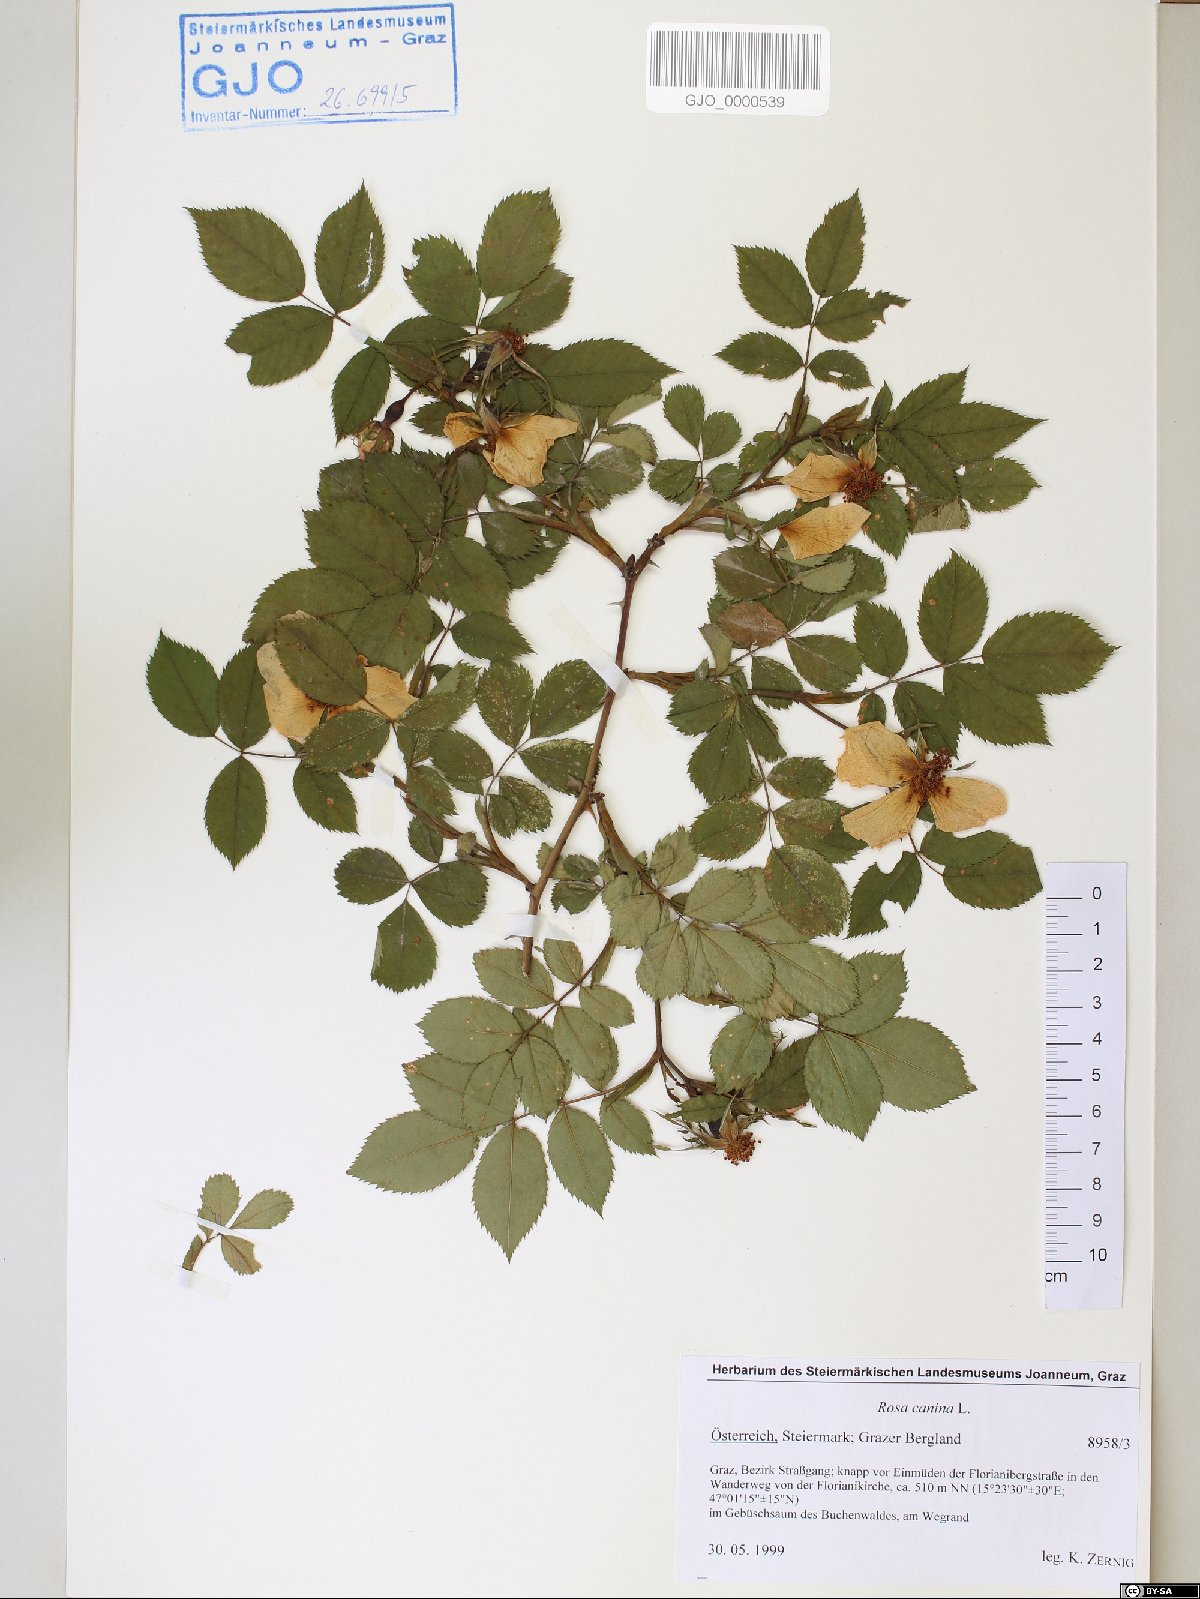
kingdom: Plantae
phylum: Tracheophyta
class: Magnoliopsida
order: Rosales
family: Rosaceae
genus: Rosa
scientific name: Rosa canina
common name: Dog rose
